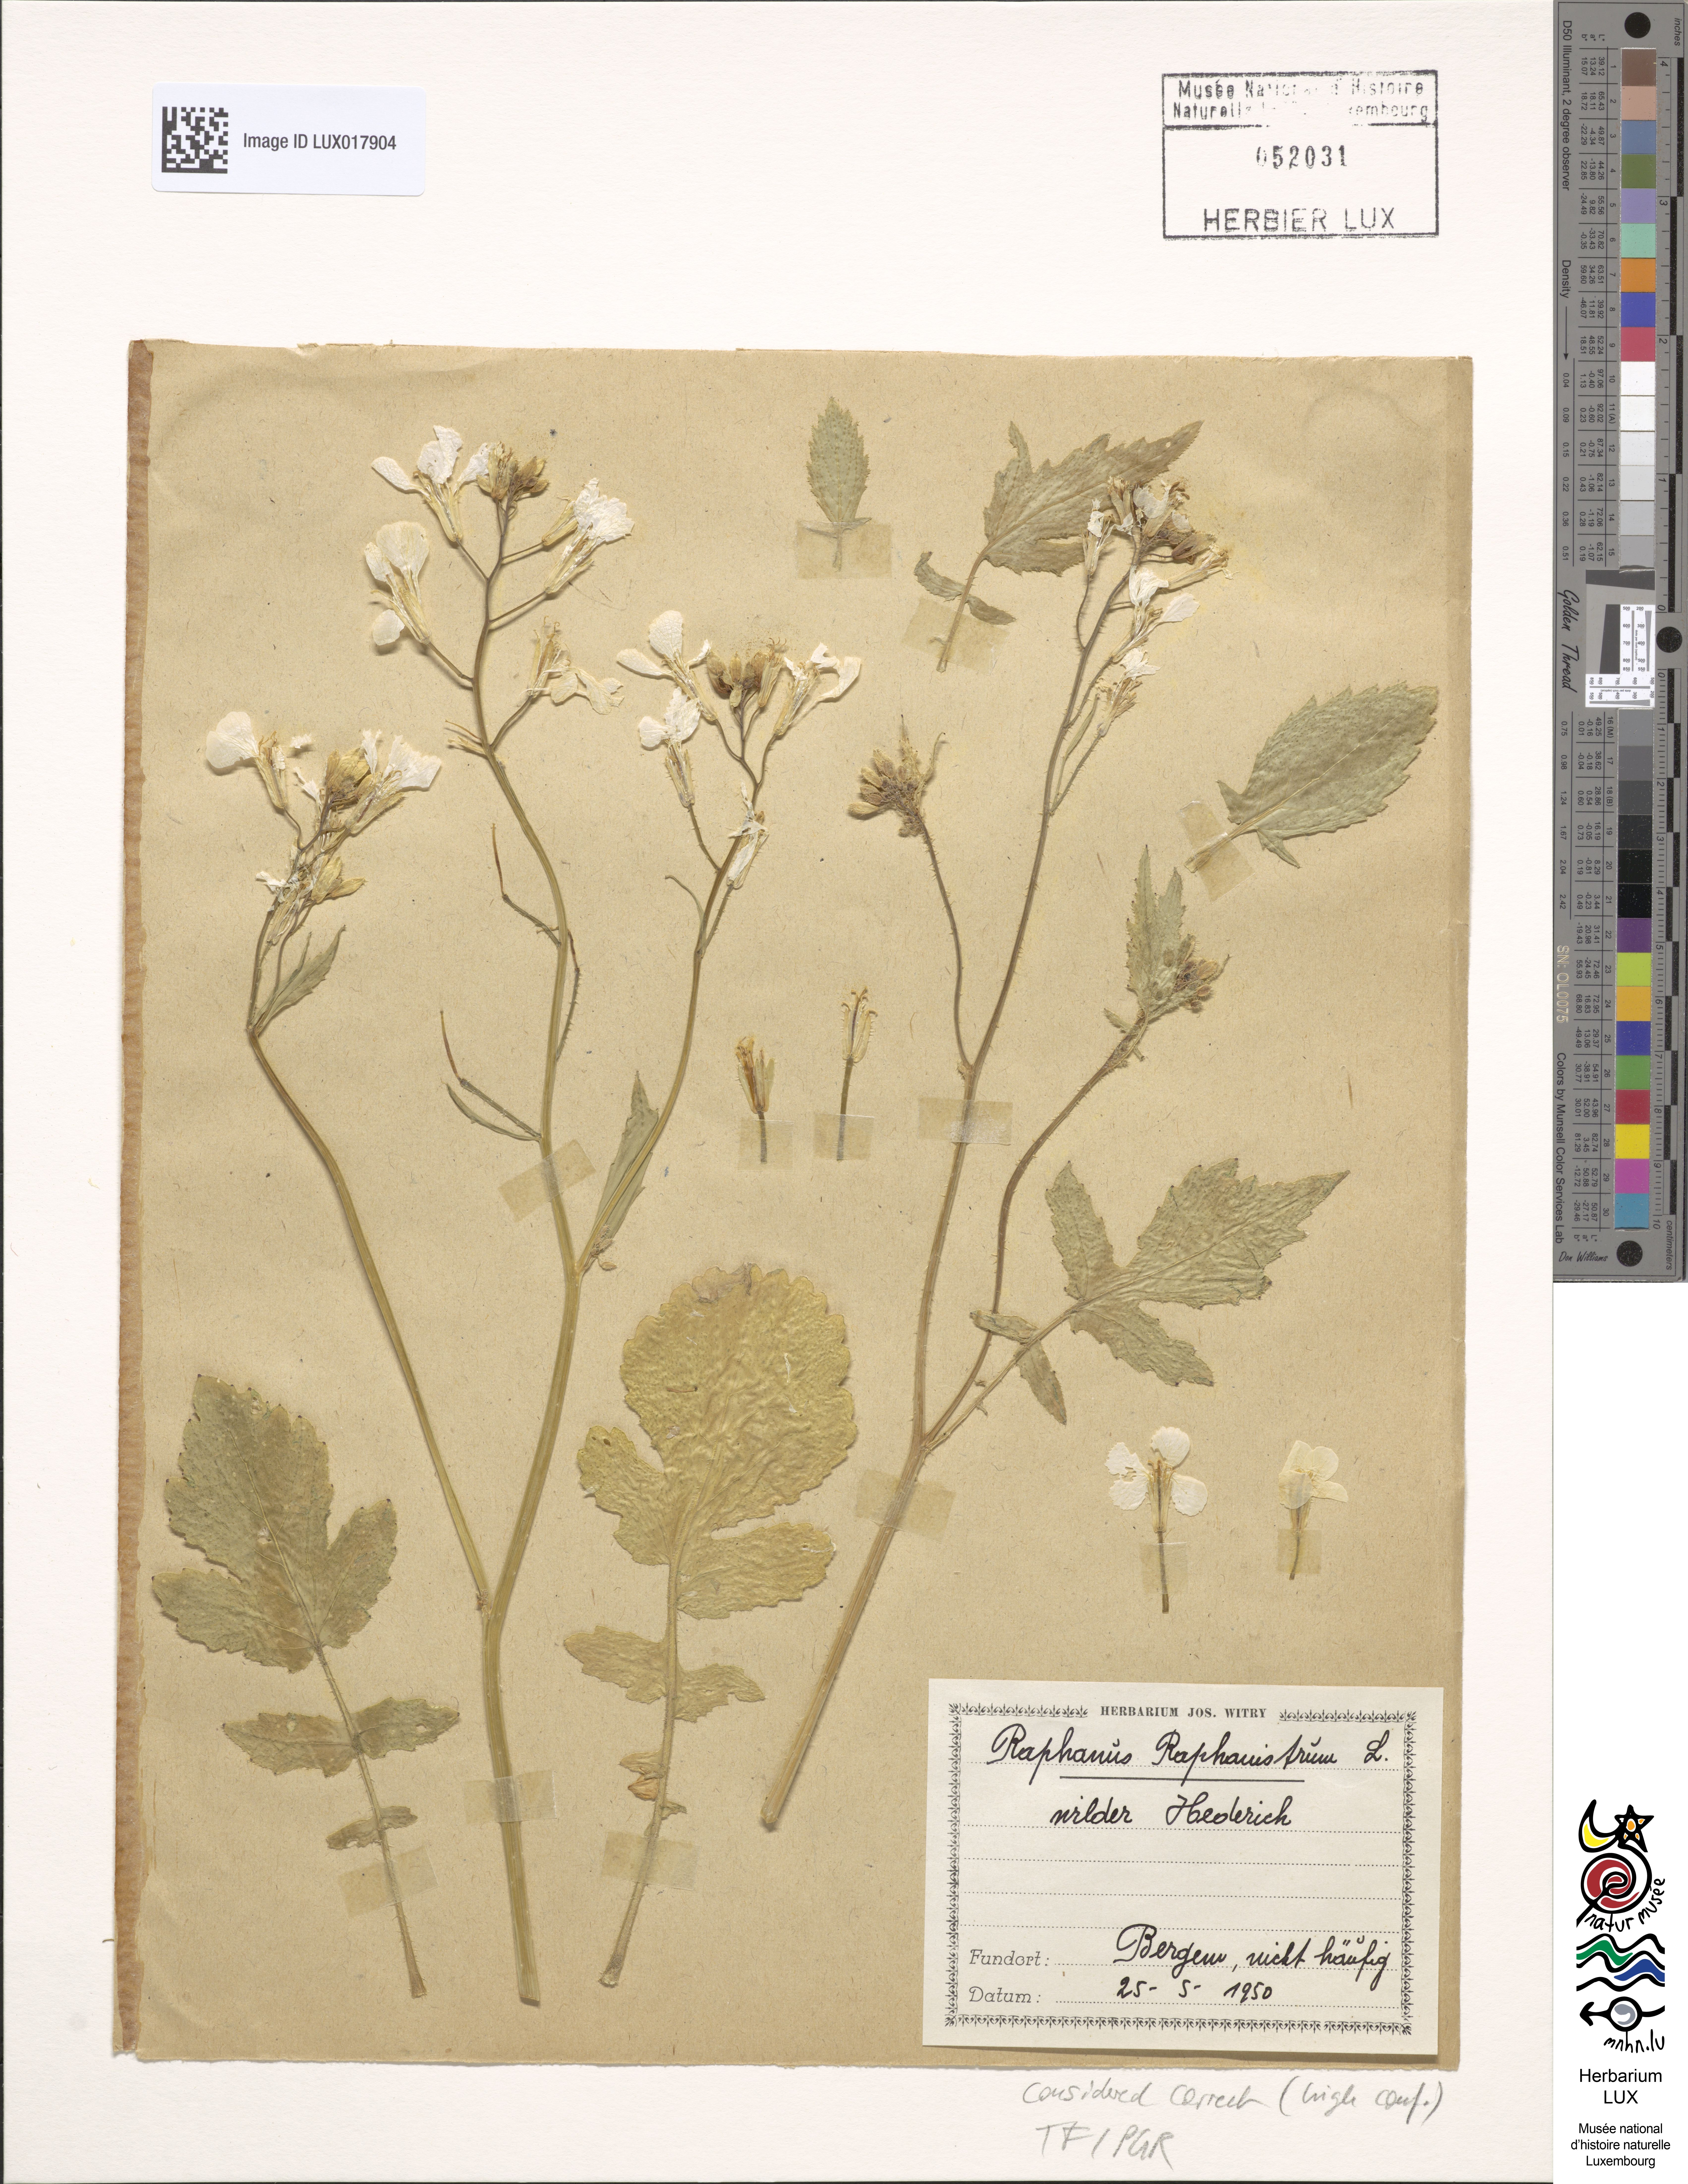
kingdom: Plantae
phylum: Tracheophyta
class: Magnoliopsida
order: Brassicales
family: Brassicaceae
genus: Raphanus
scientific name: Raphanus raphanistrum
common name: Wild radish
